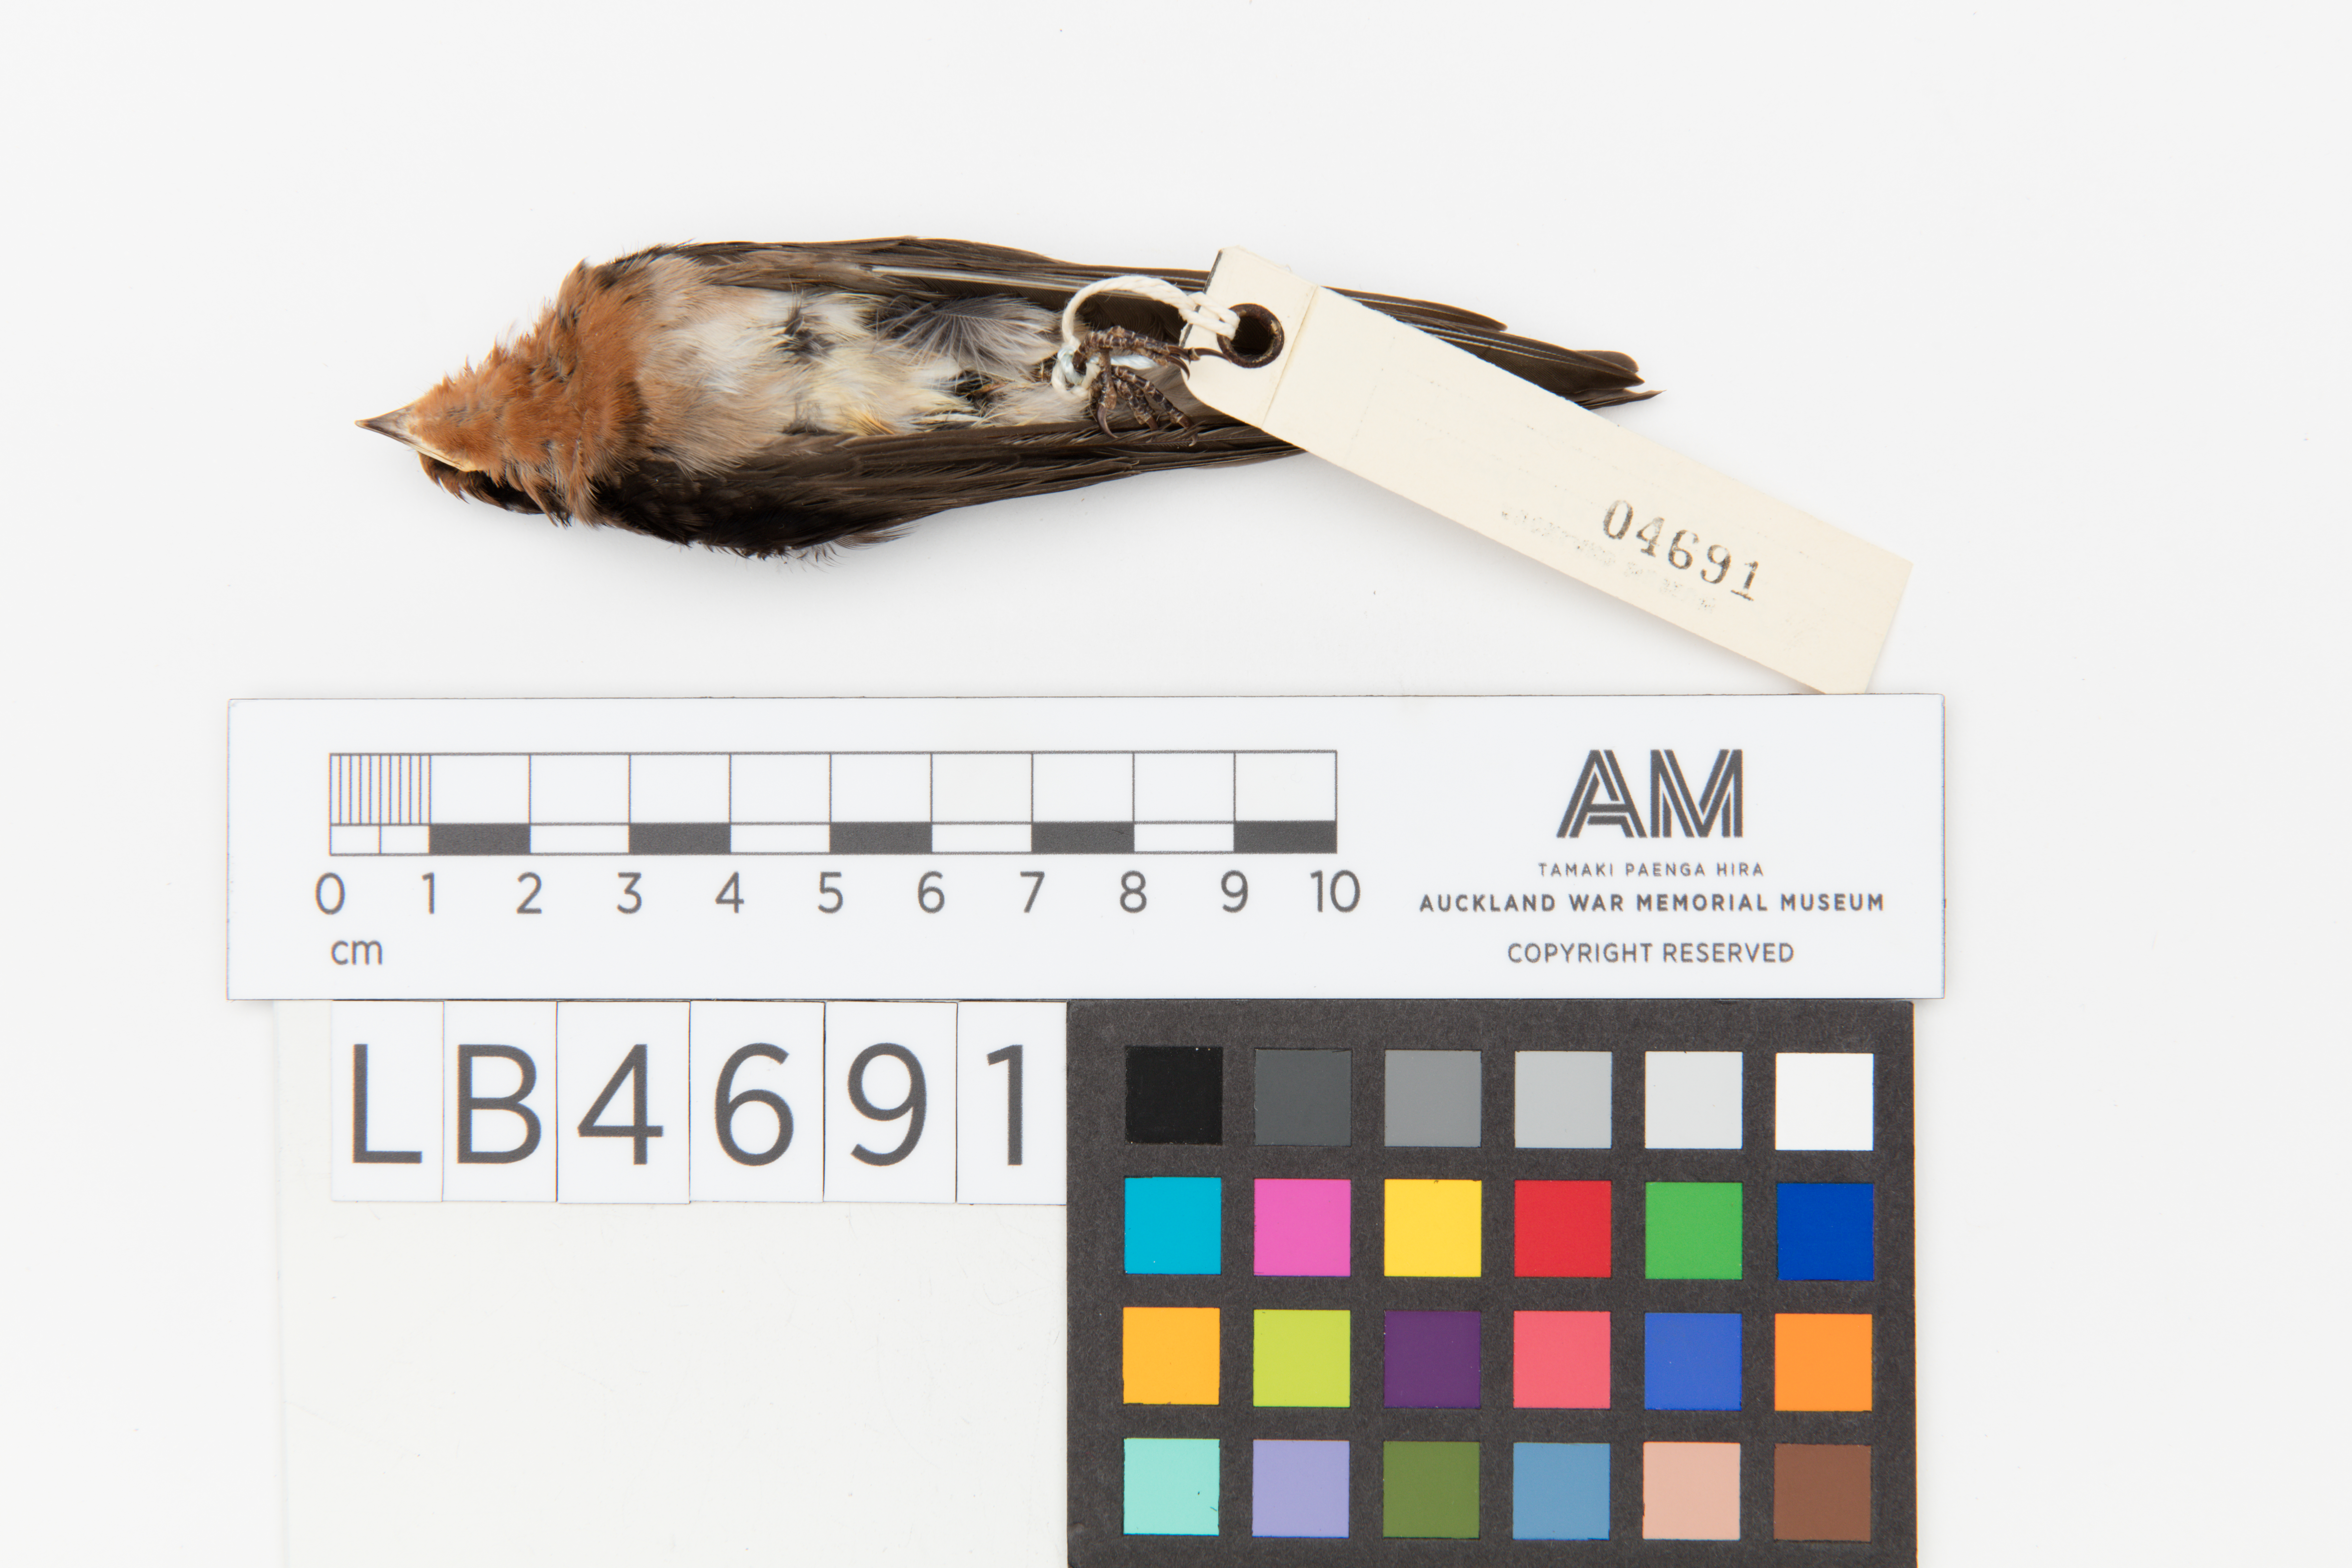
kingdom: Animalia
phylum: Chordata
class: Aves
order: Passeriformes
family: Hirundinidae
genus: Hirundo
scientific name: Hirundo neoxena
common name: Welcome swallow
